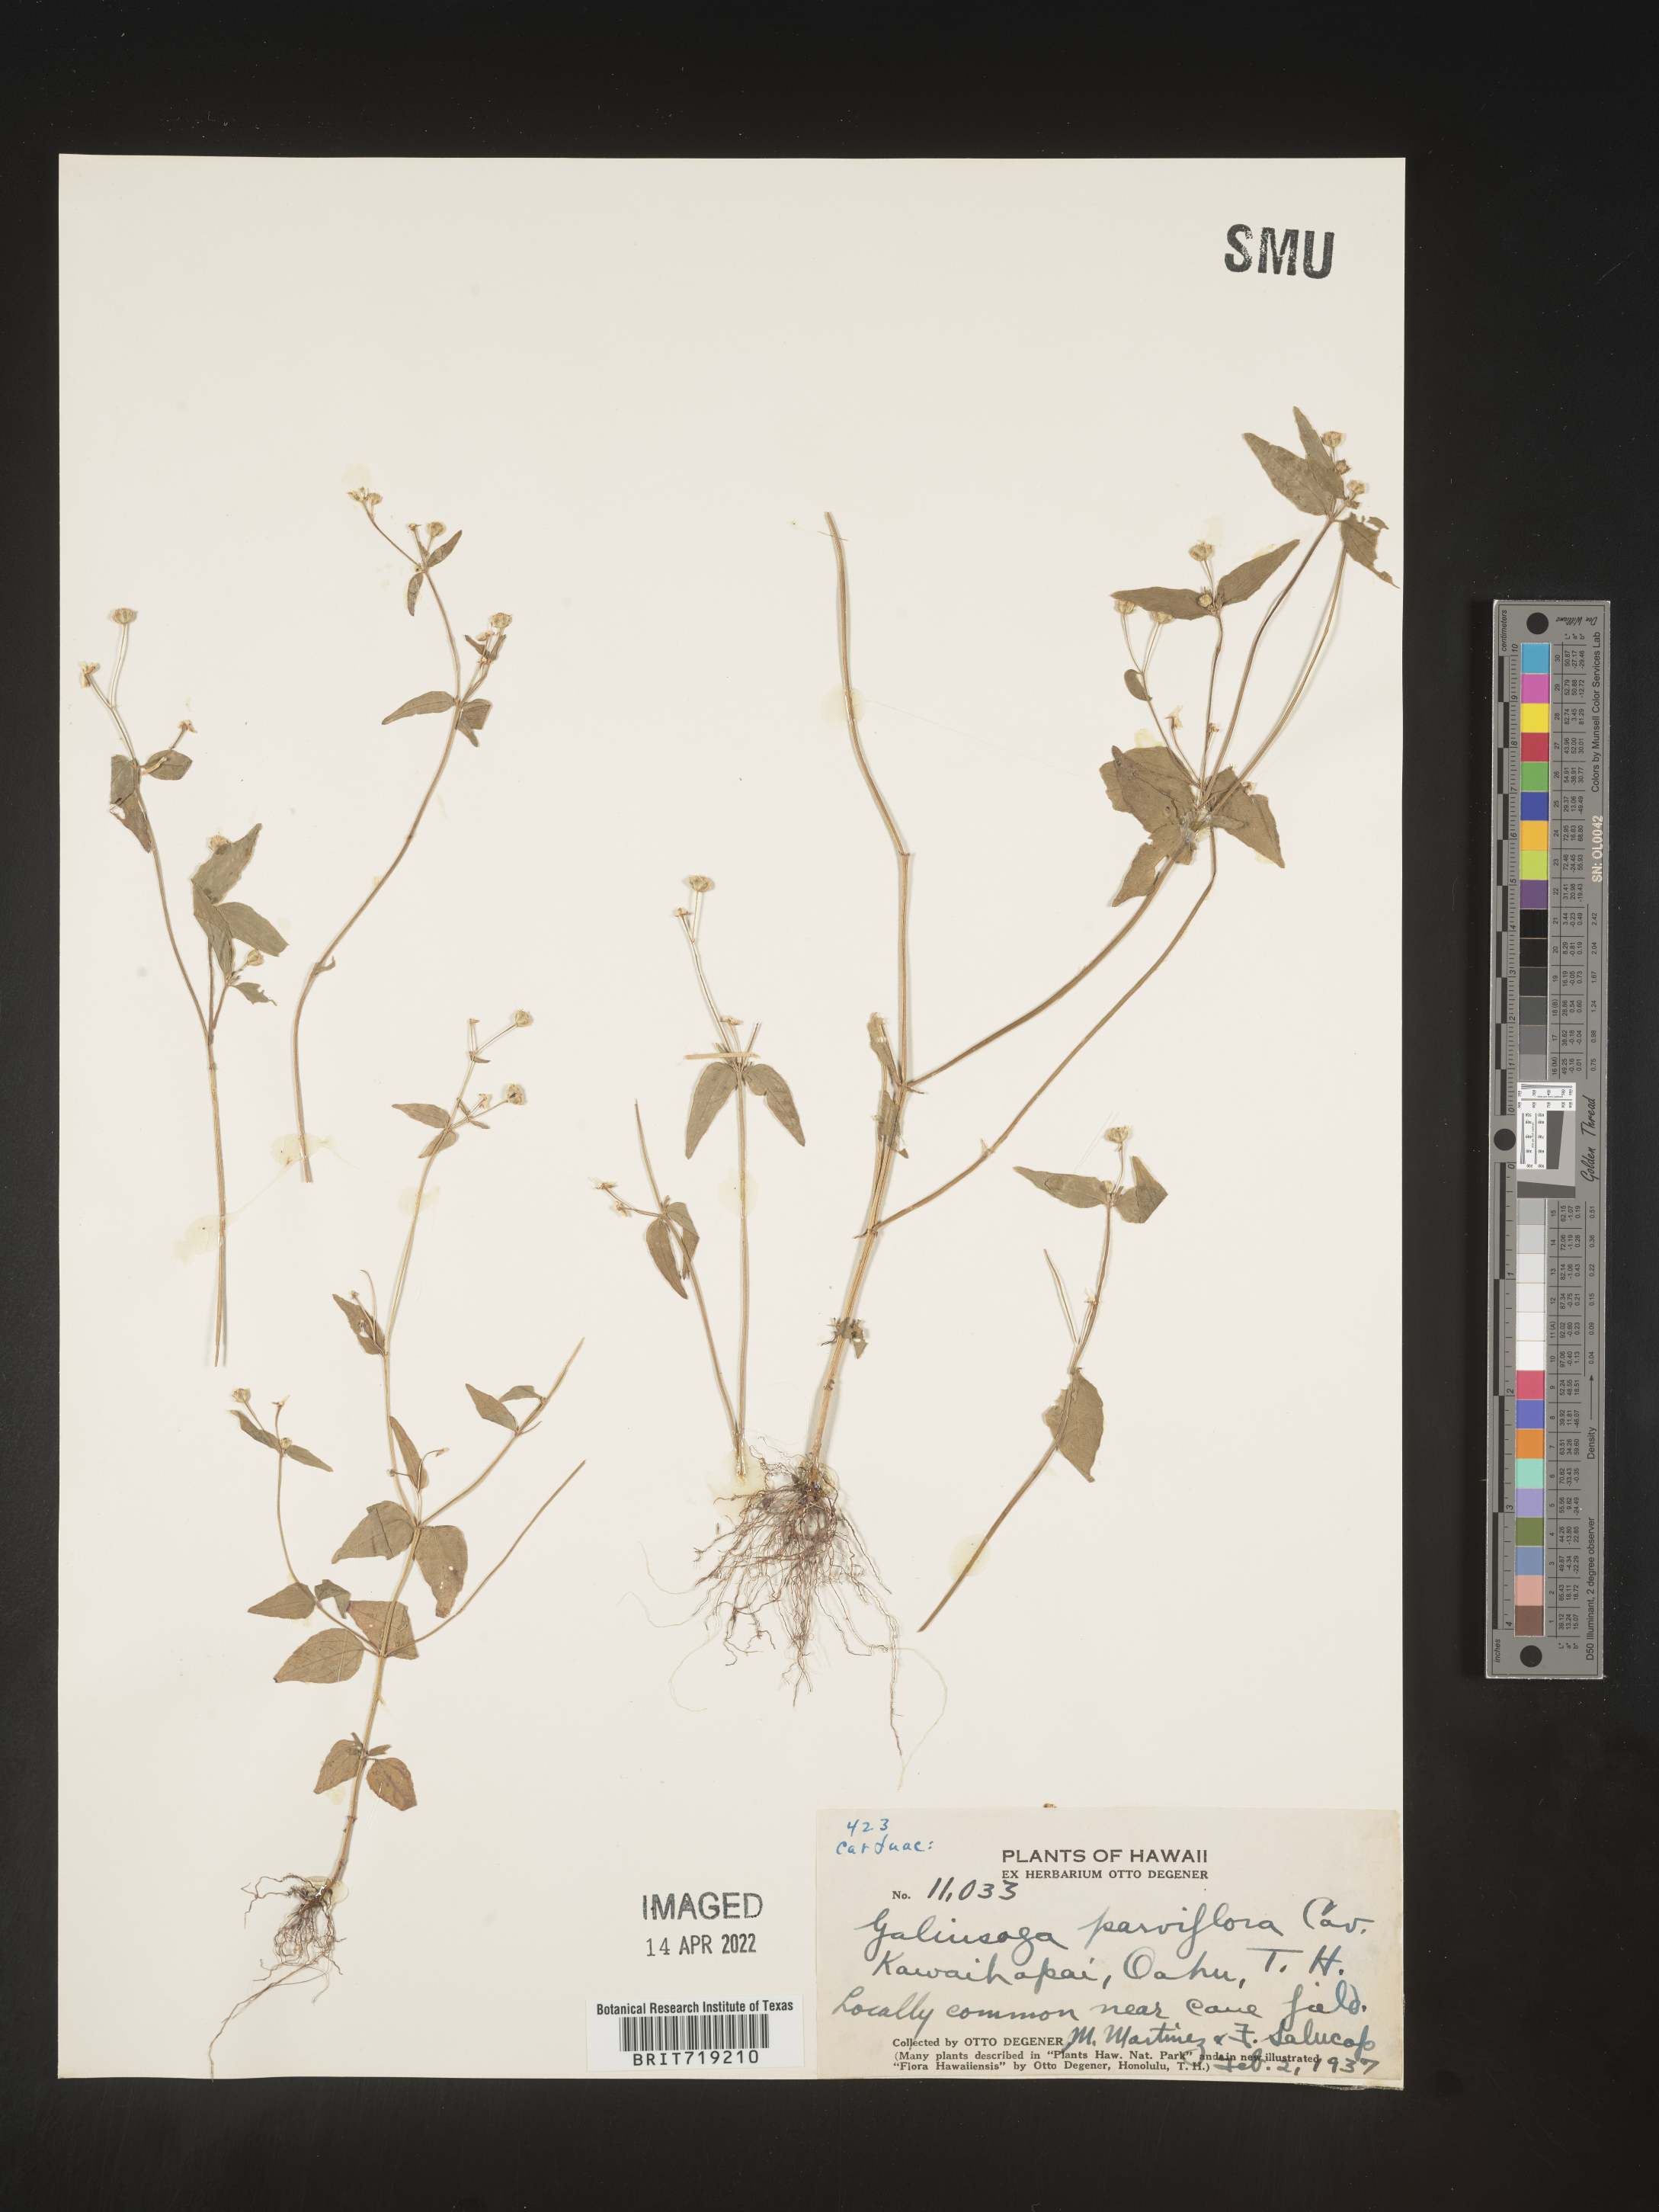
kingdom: Plantae
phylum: Tracheophyta
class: Magnoliopsida
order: Asterales
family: Asteraceae
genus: Galinsoga
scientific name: Galinsoga
